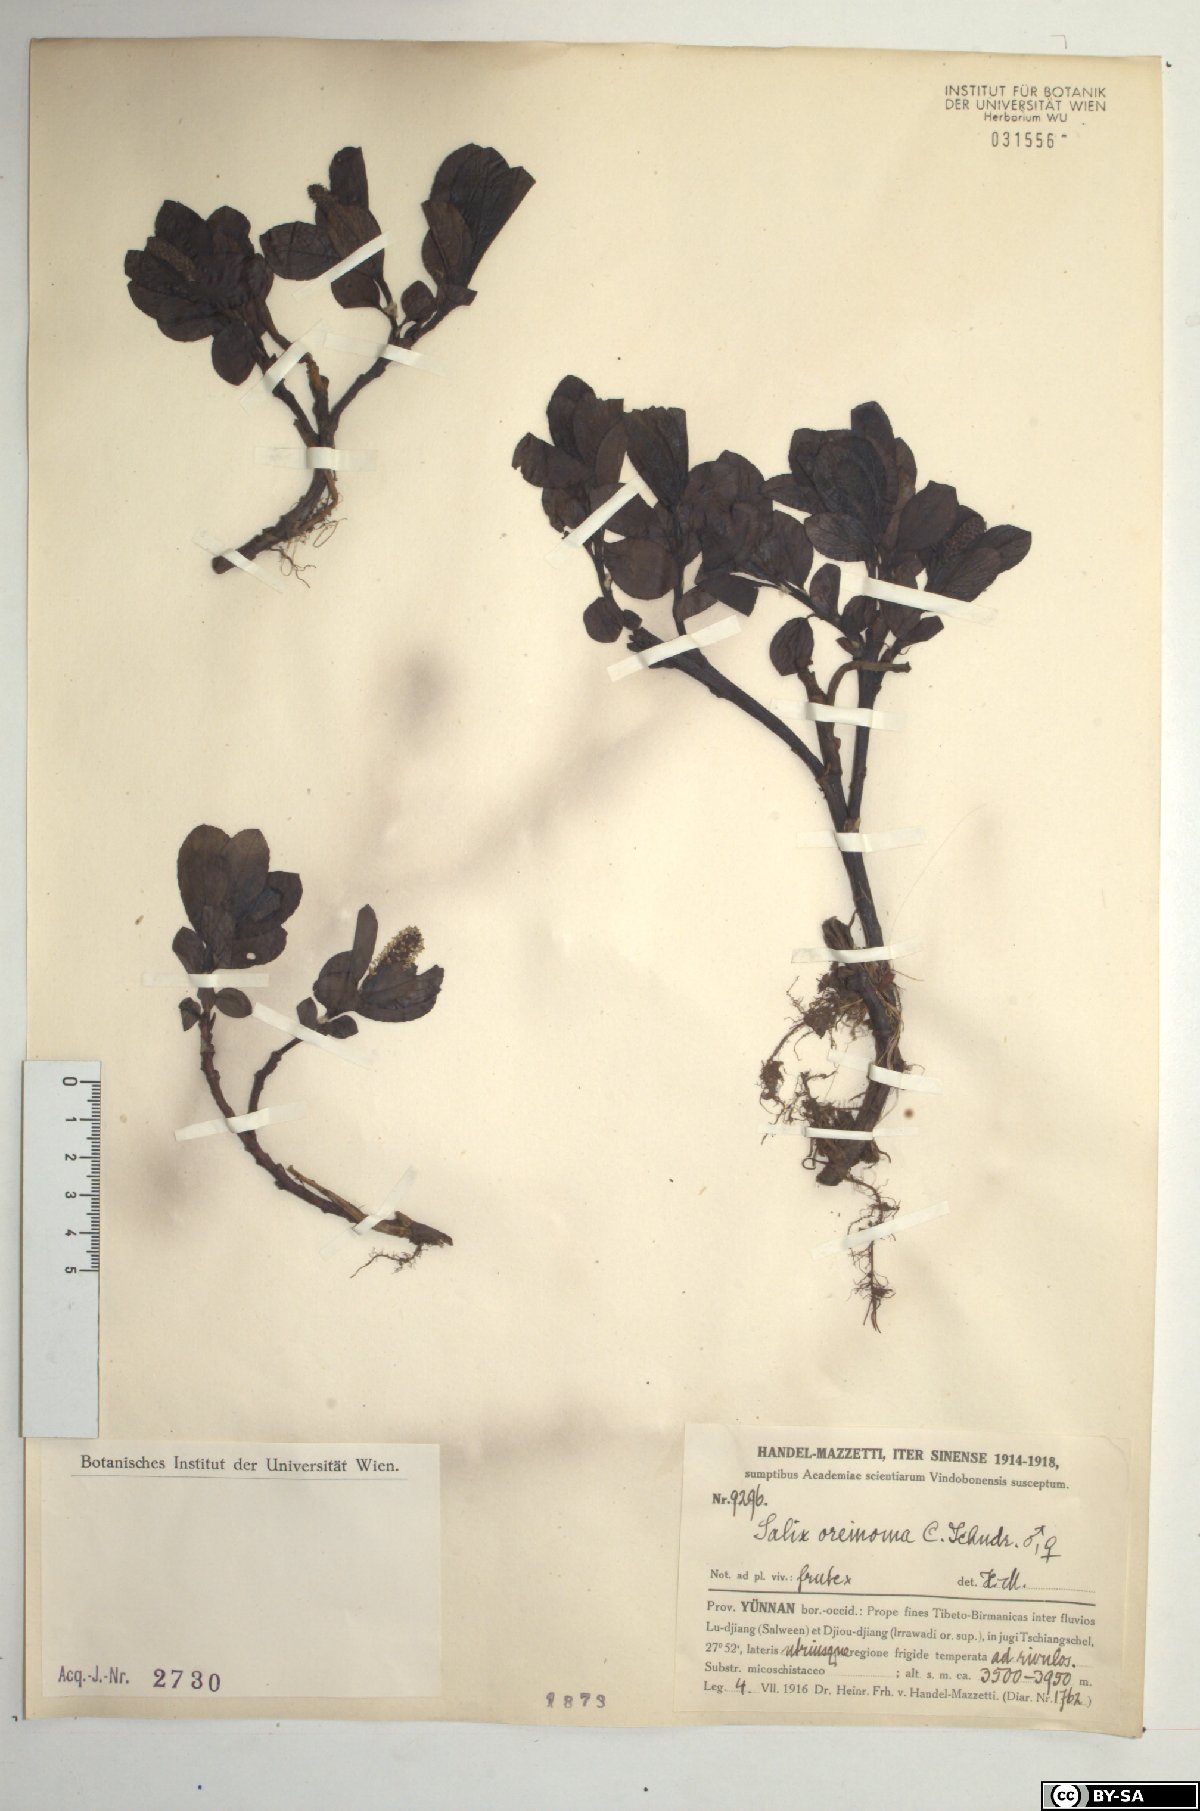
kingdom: Plantae
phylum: Tracheophyta
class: Magnoliopsida
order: Malpighiales
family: Salicaceae
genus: Salix
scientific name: Salix oreinoma
